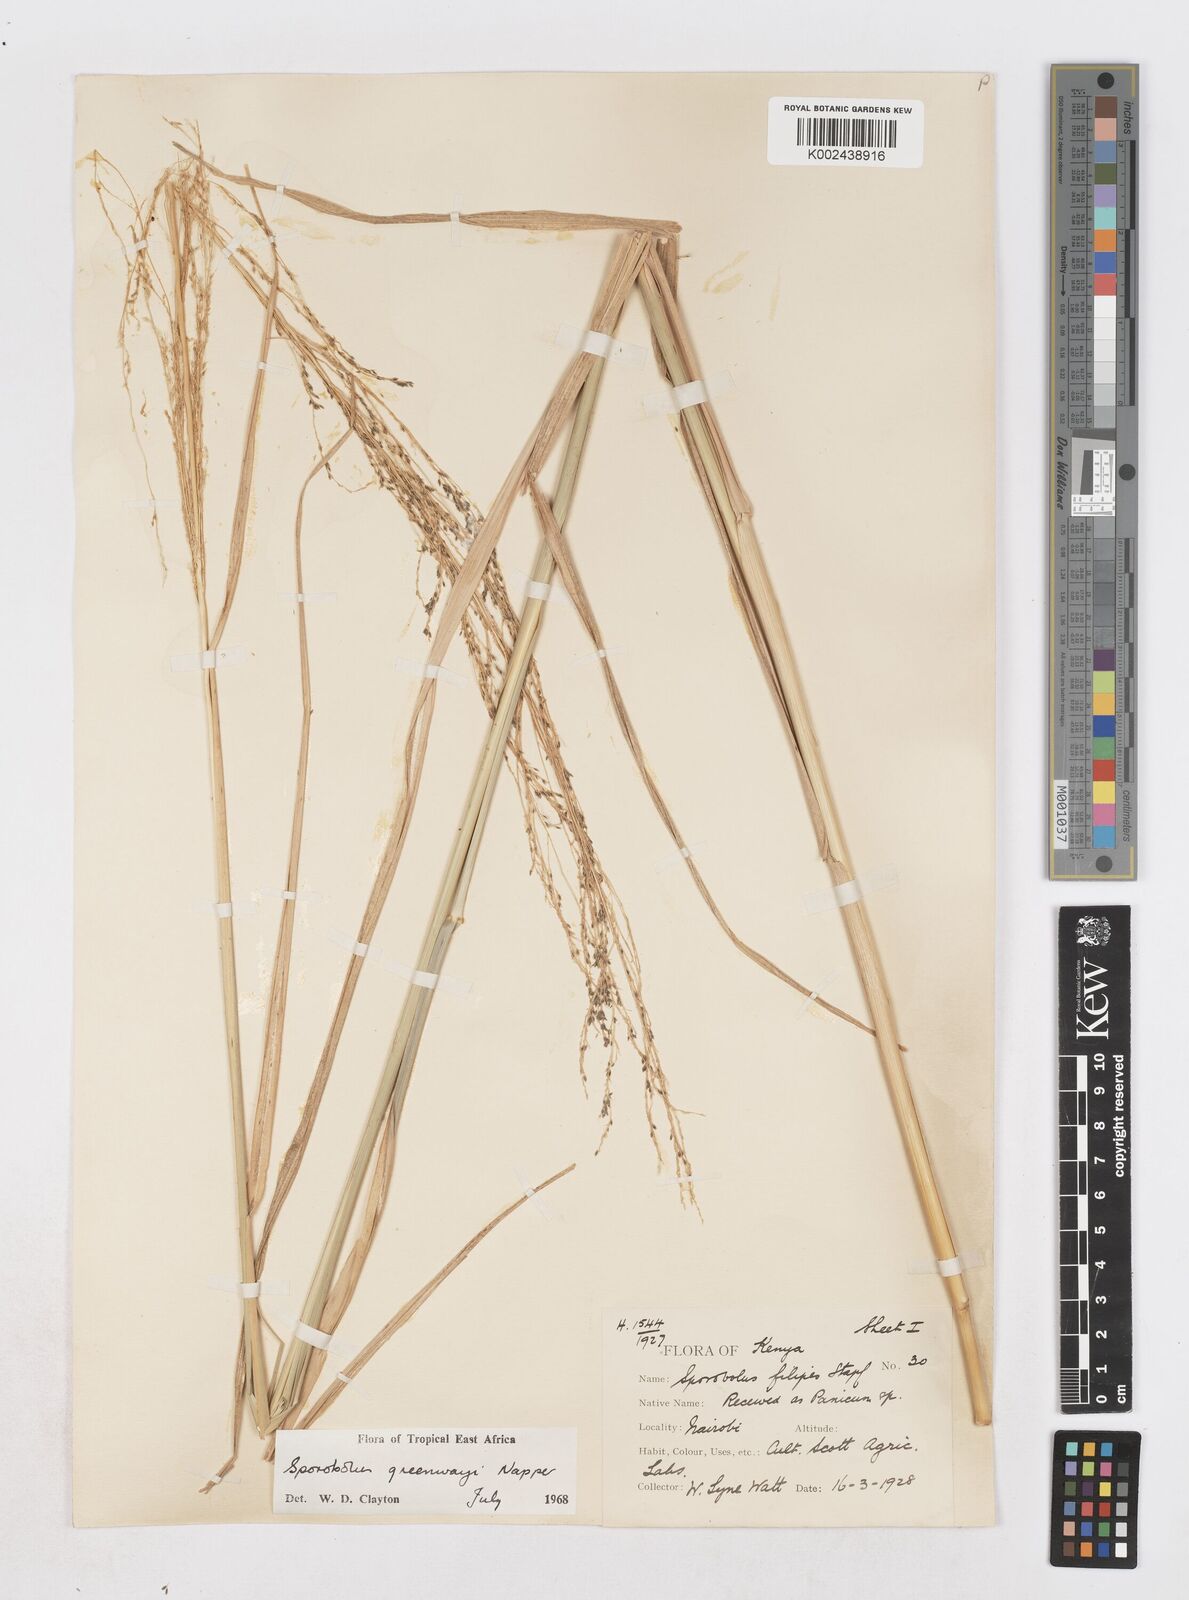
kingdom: Plantae
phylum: Tracheophyta
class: Liliopsida
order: Poales
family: Poaceae
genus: Sporobolus
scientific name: Sporobolus macranthelus
